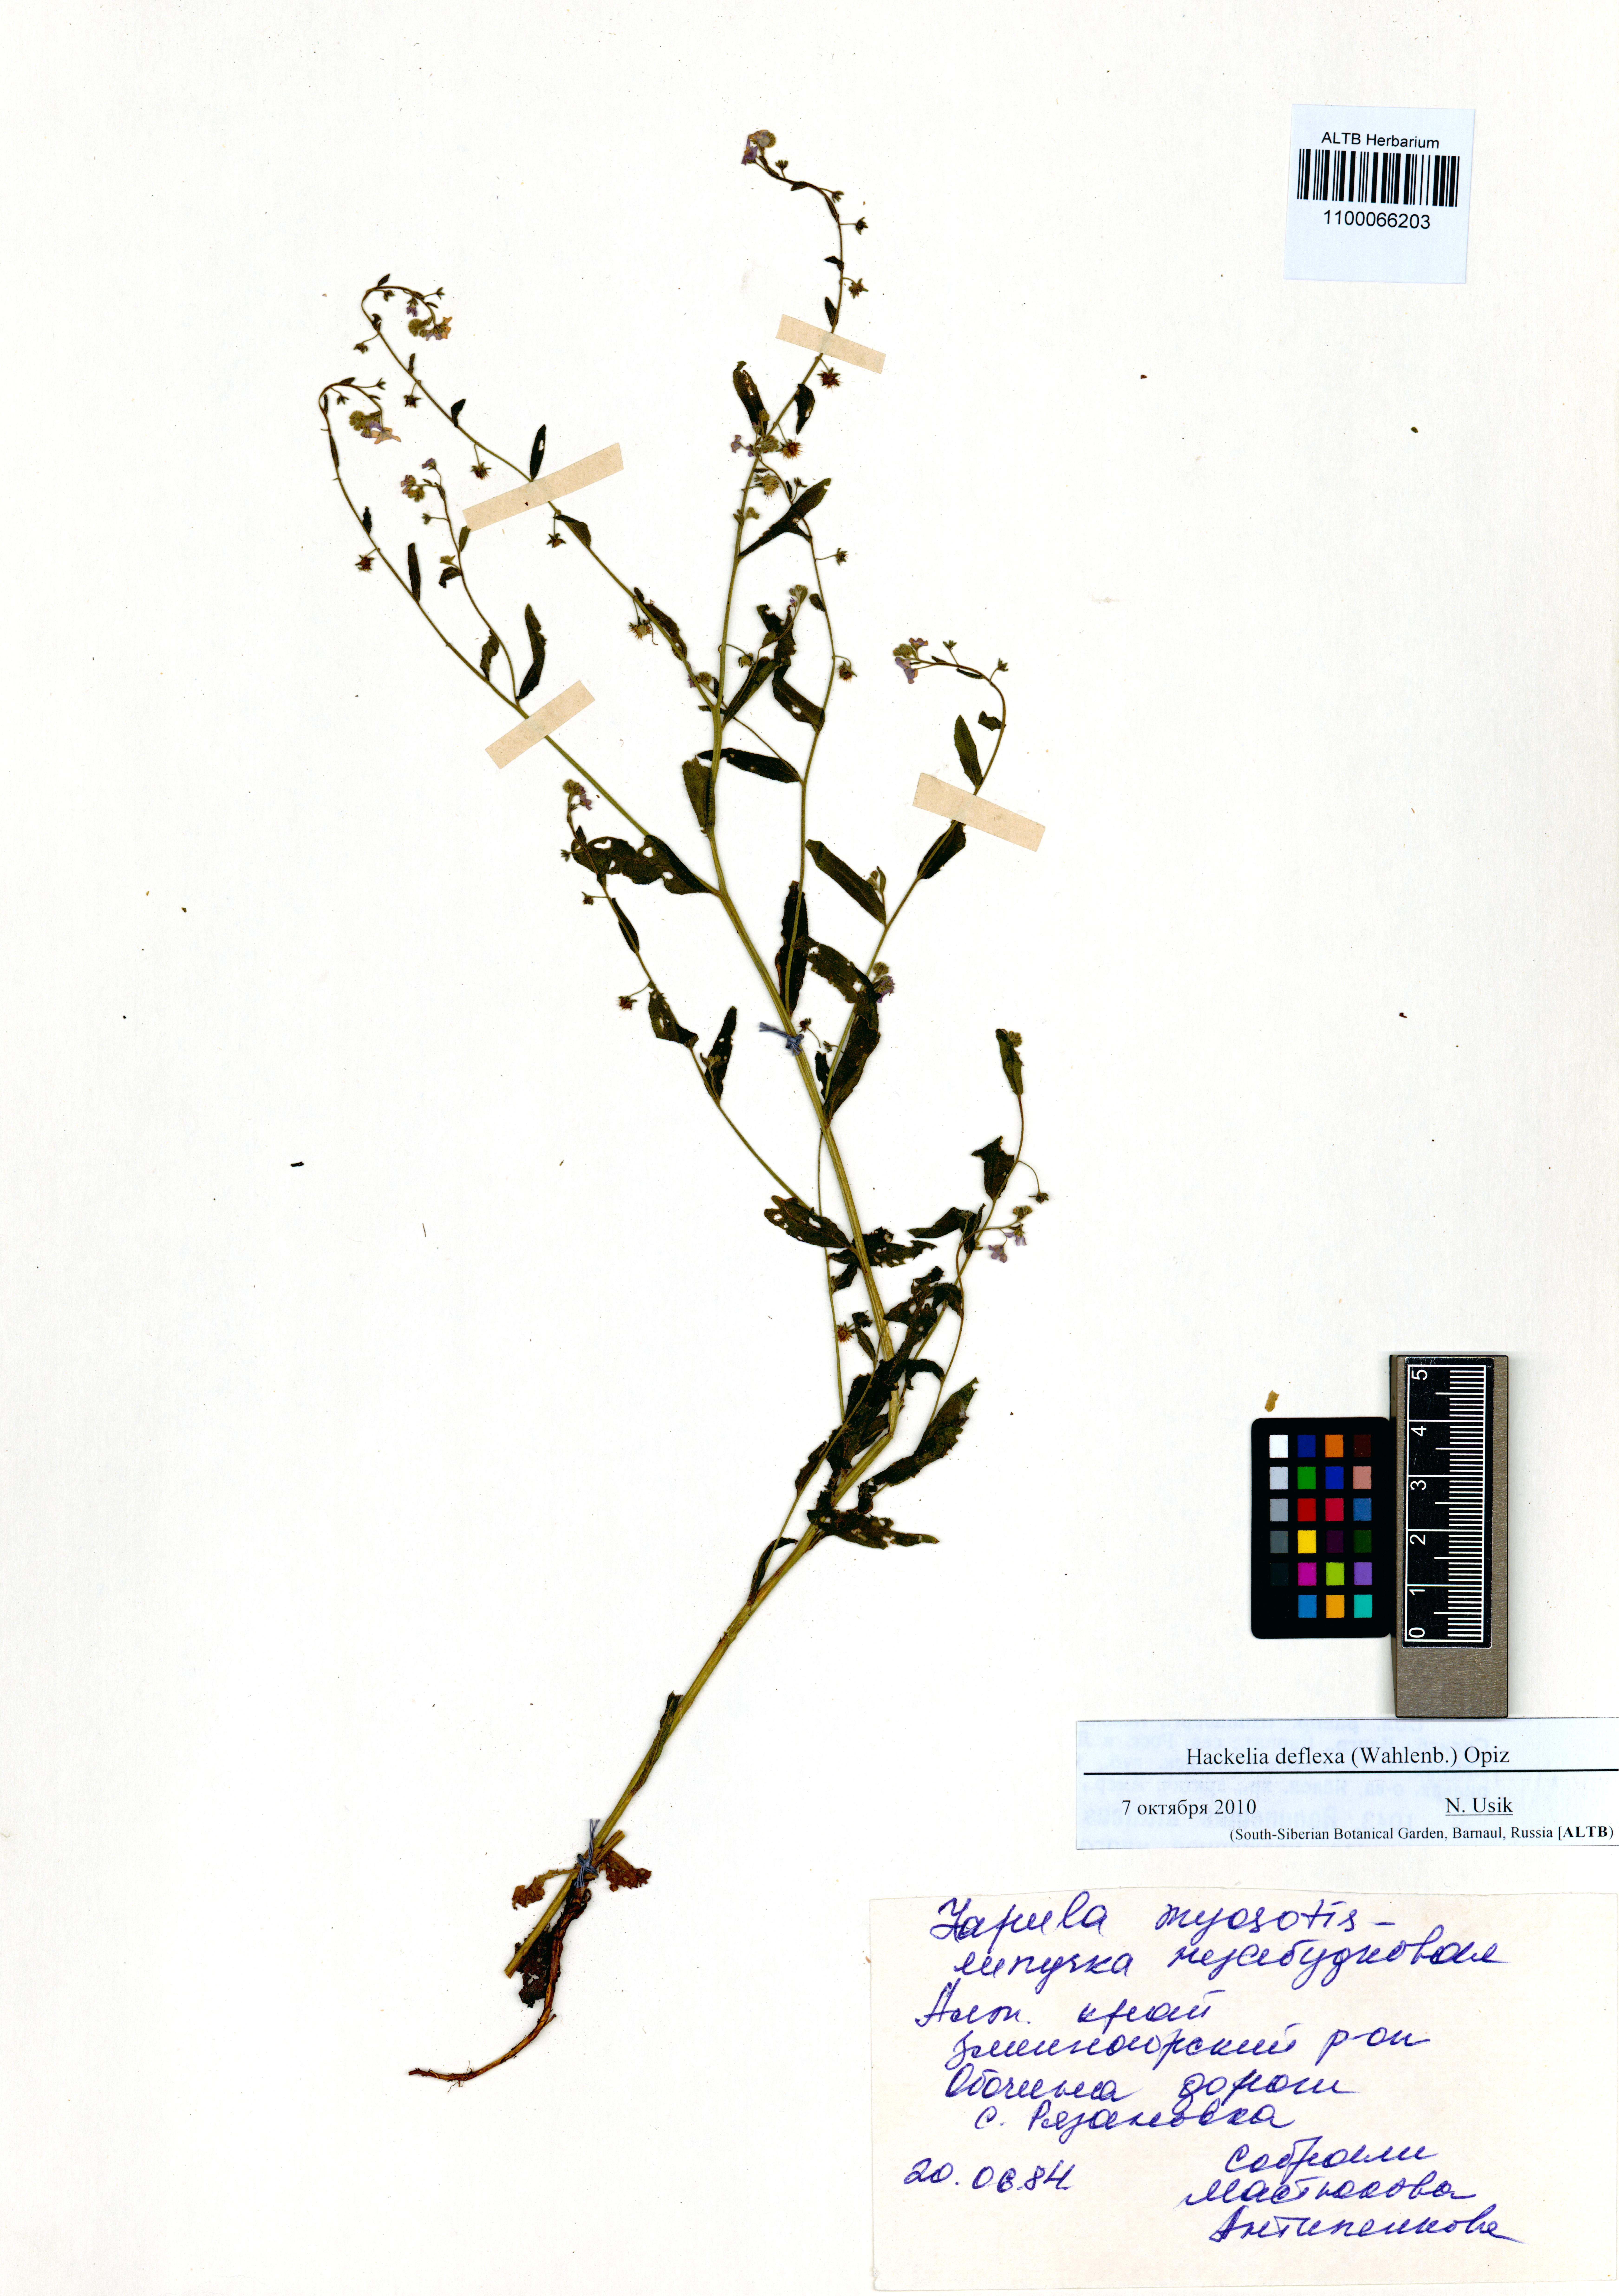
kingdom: Plantae
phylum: Tracheophyta
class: Magnoliopsida
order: Boraginales
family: Boraginaceae
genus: Hackelia
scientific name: Hackelia deflexa
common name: Nodding stickseed
